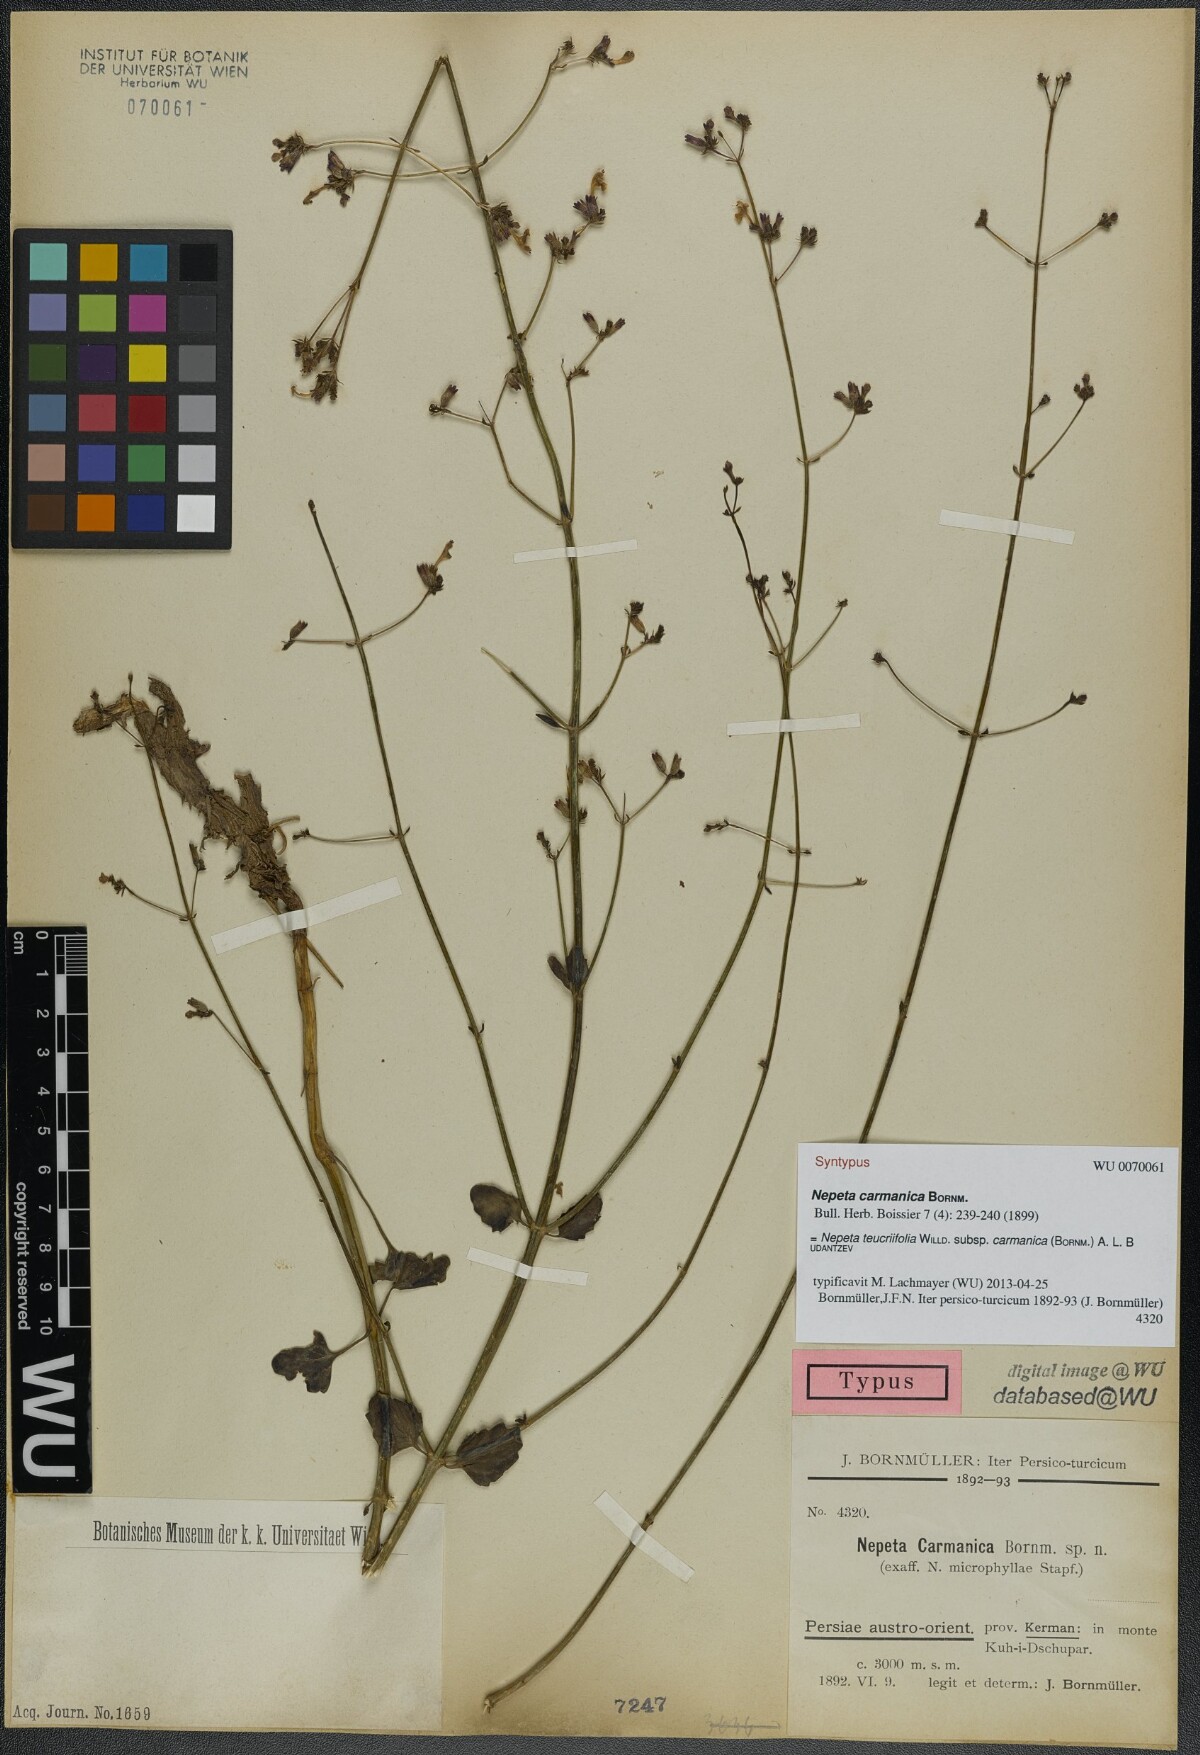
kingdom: Plantae
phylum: Tracheophyta
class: Magnoliopsida
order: Lamiales
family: Lamiaceae
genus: Nepeta
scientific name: Nepeta teucriifolia
